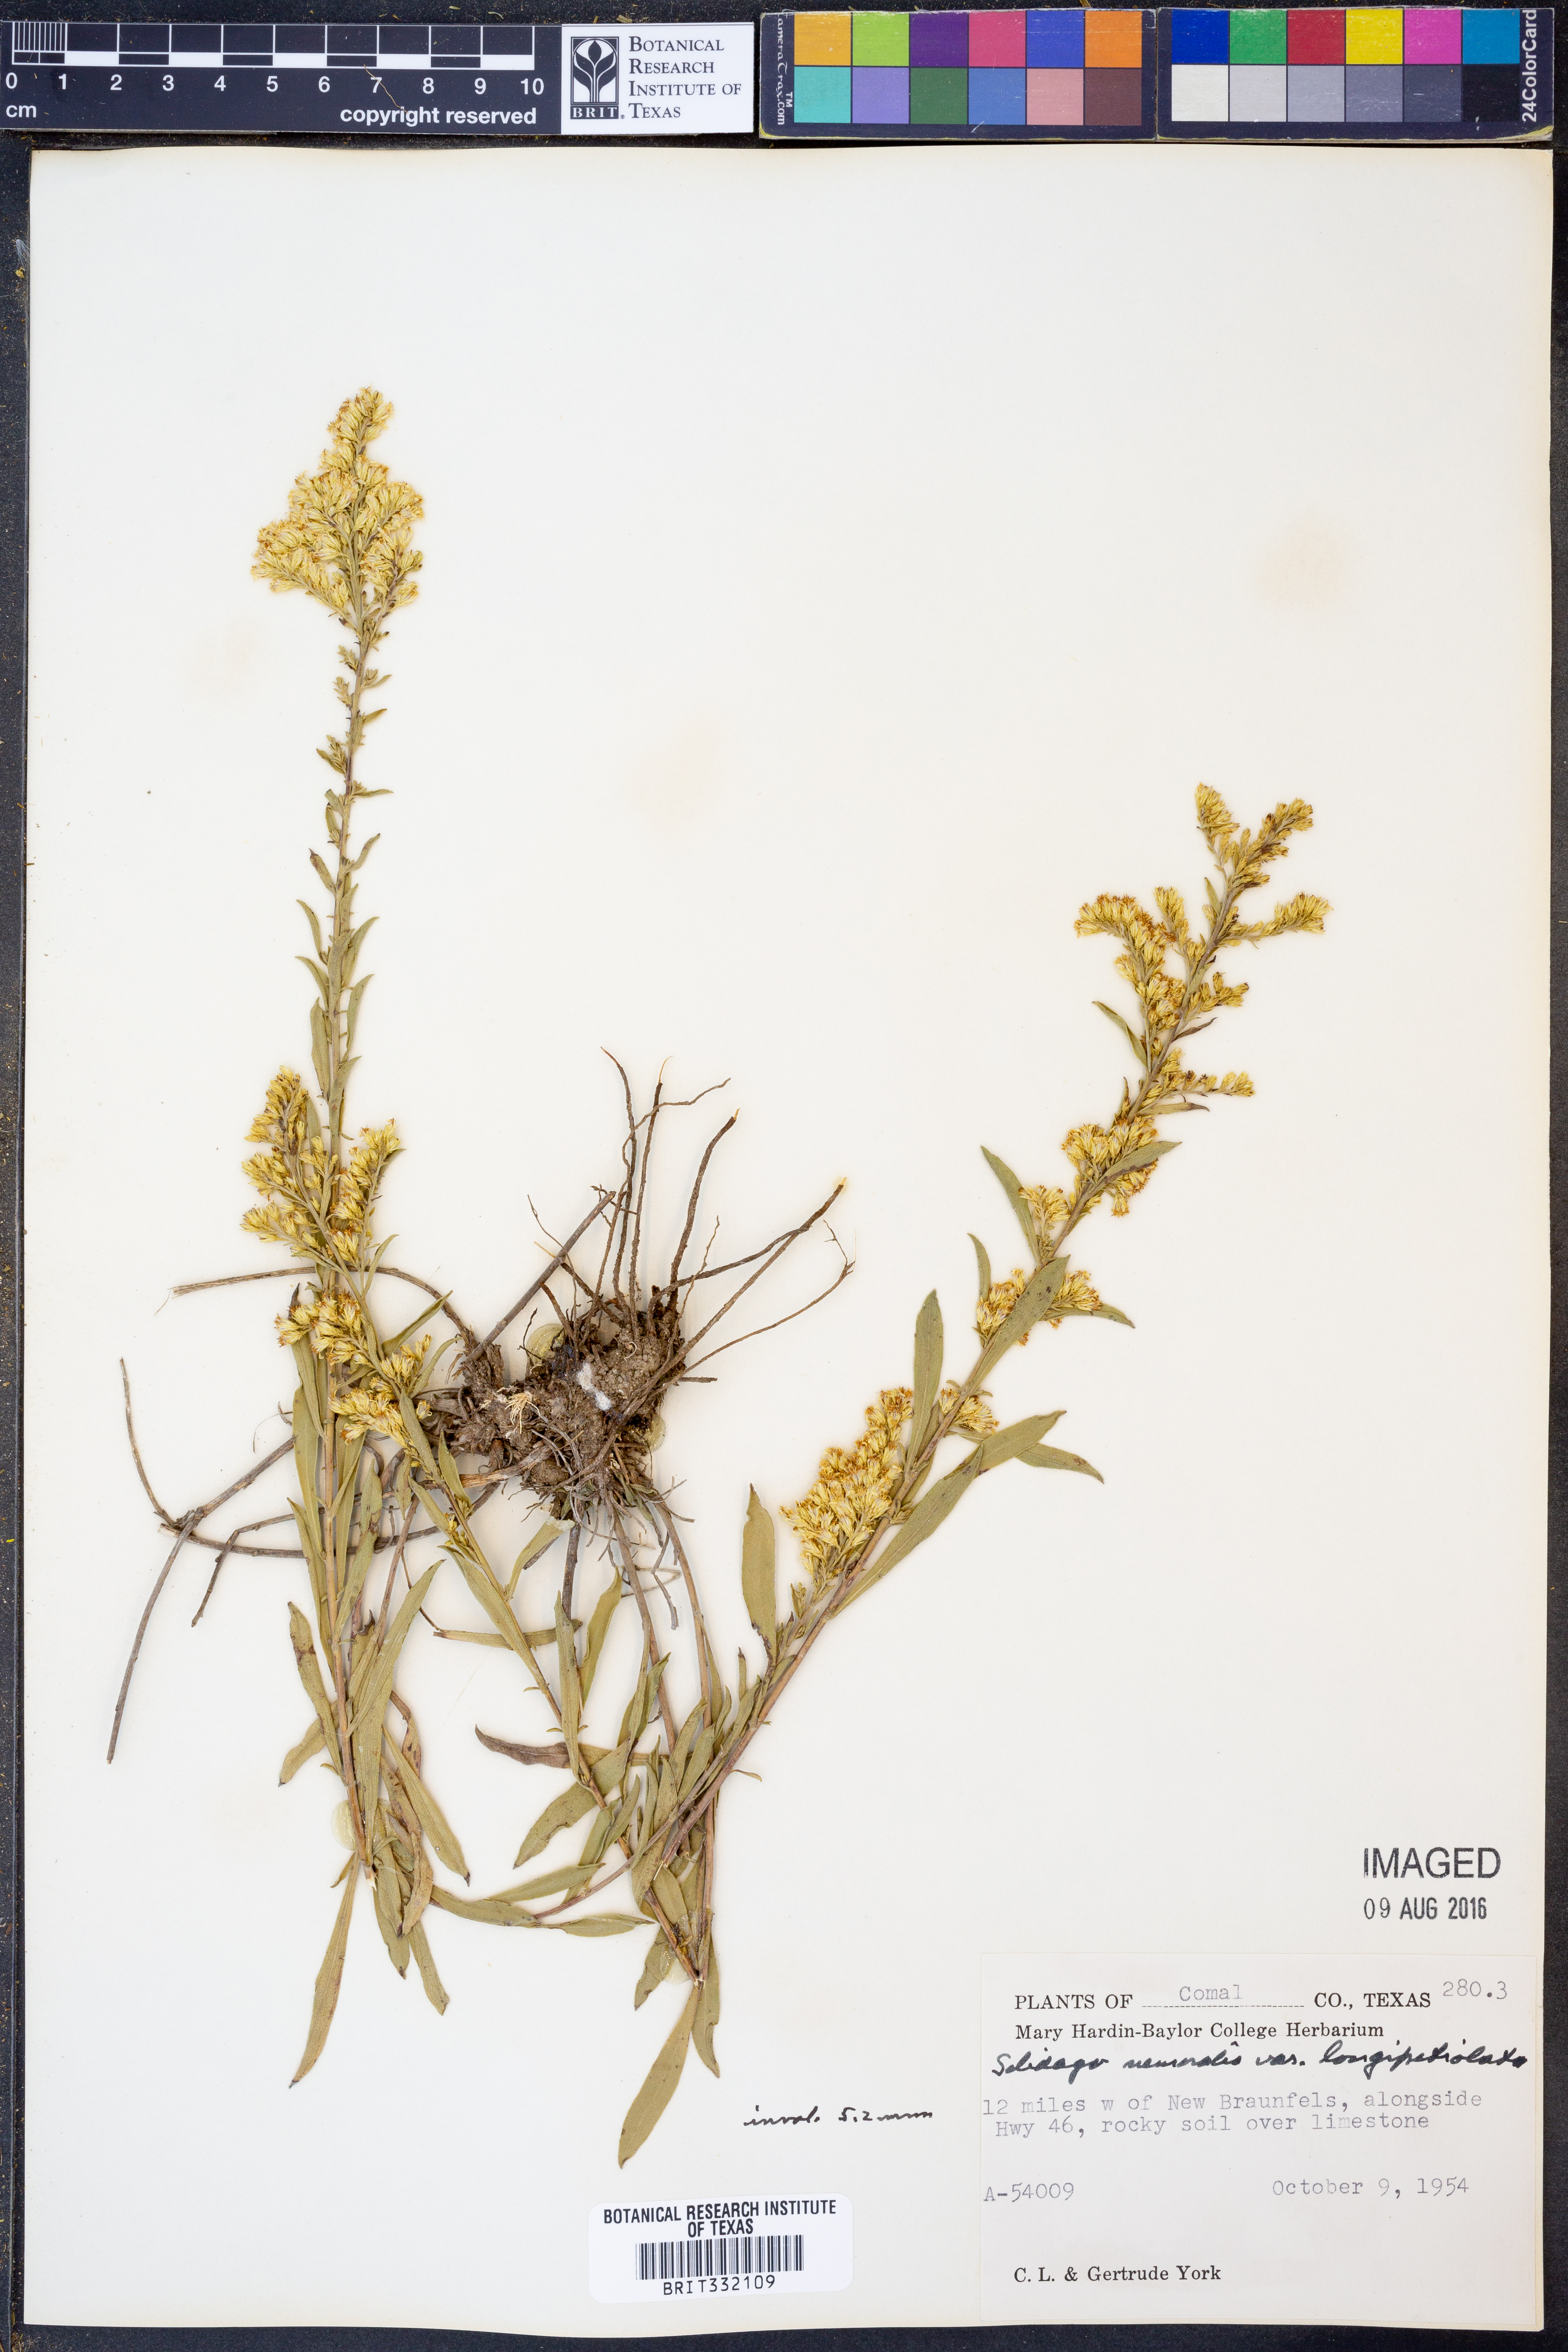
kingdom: Plantae
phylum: Tracheophyta
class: Magnoliopsida
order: Asterales
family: Asteraceae
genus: Solidago
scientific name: Solidago decemflora
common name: Prairie grey-stemmed goldenrod
